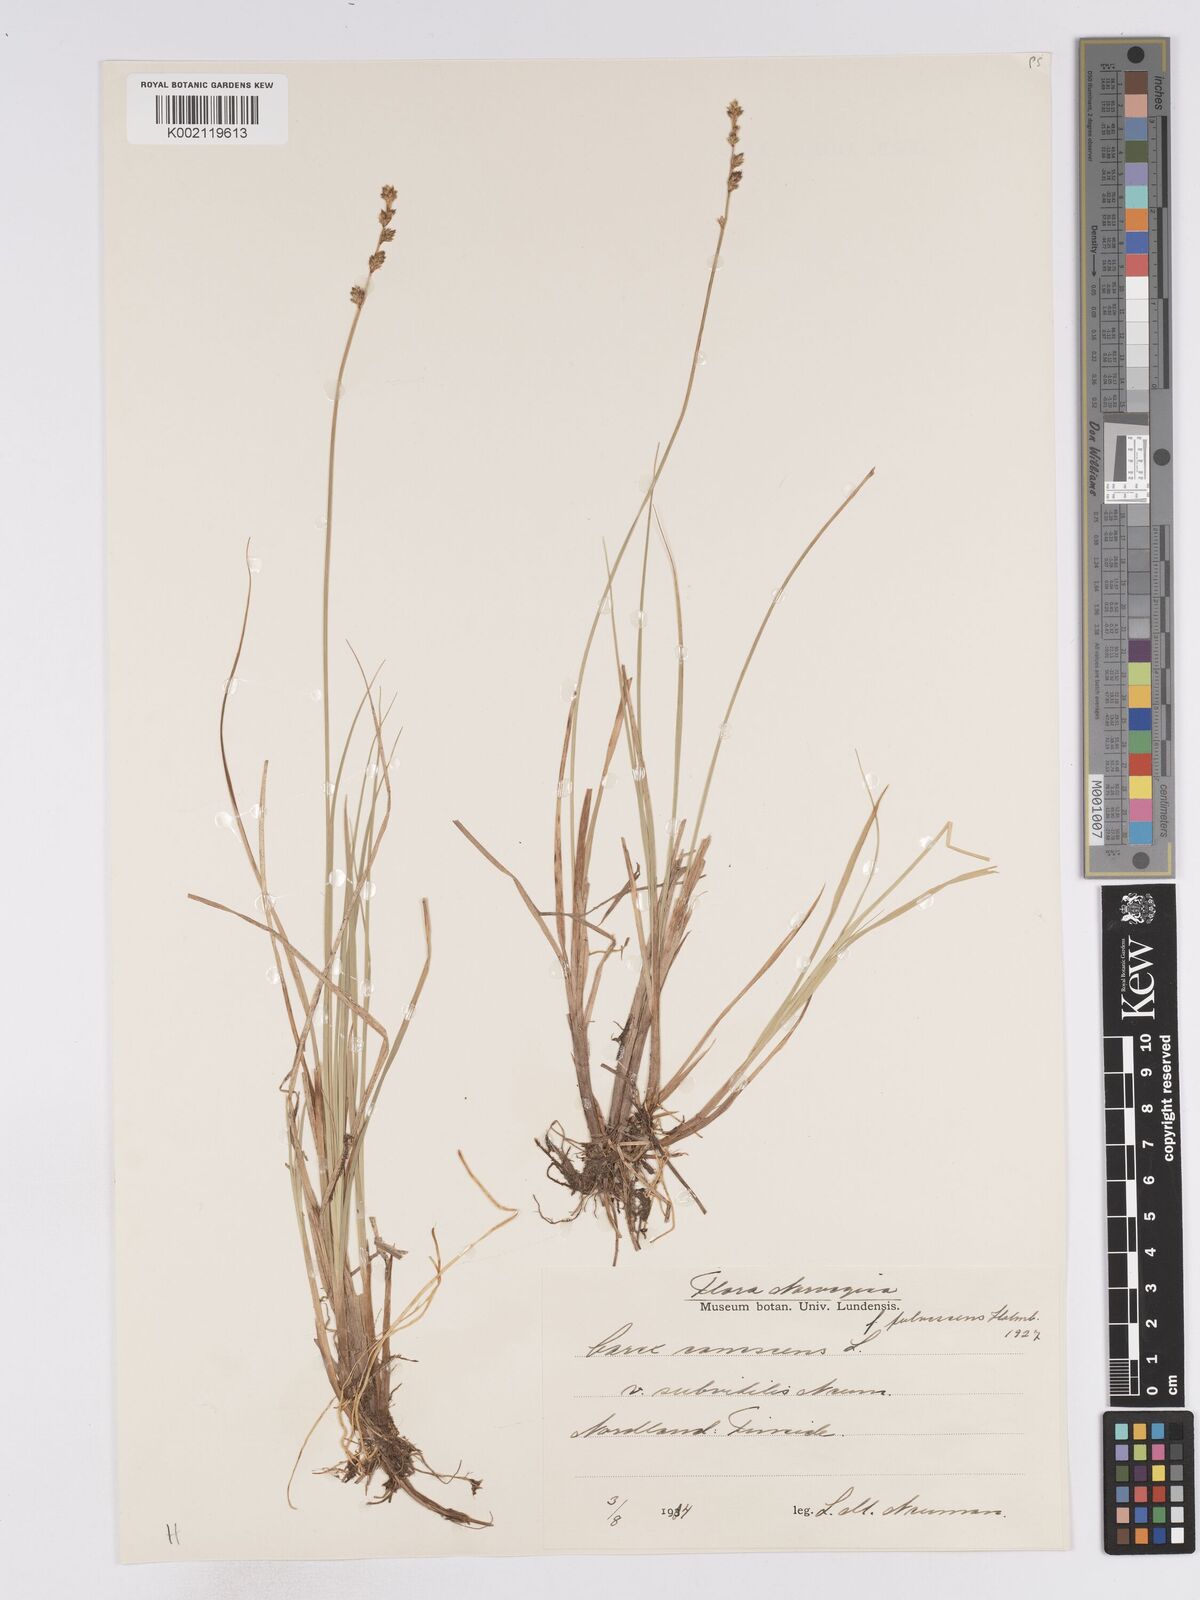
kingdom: Plantae
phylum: Tracheophyta
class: Liliopsida
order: Poales
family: Cyperaceae
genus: Carex
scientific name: Carex curta
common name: White sedge
